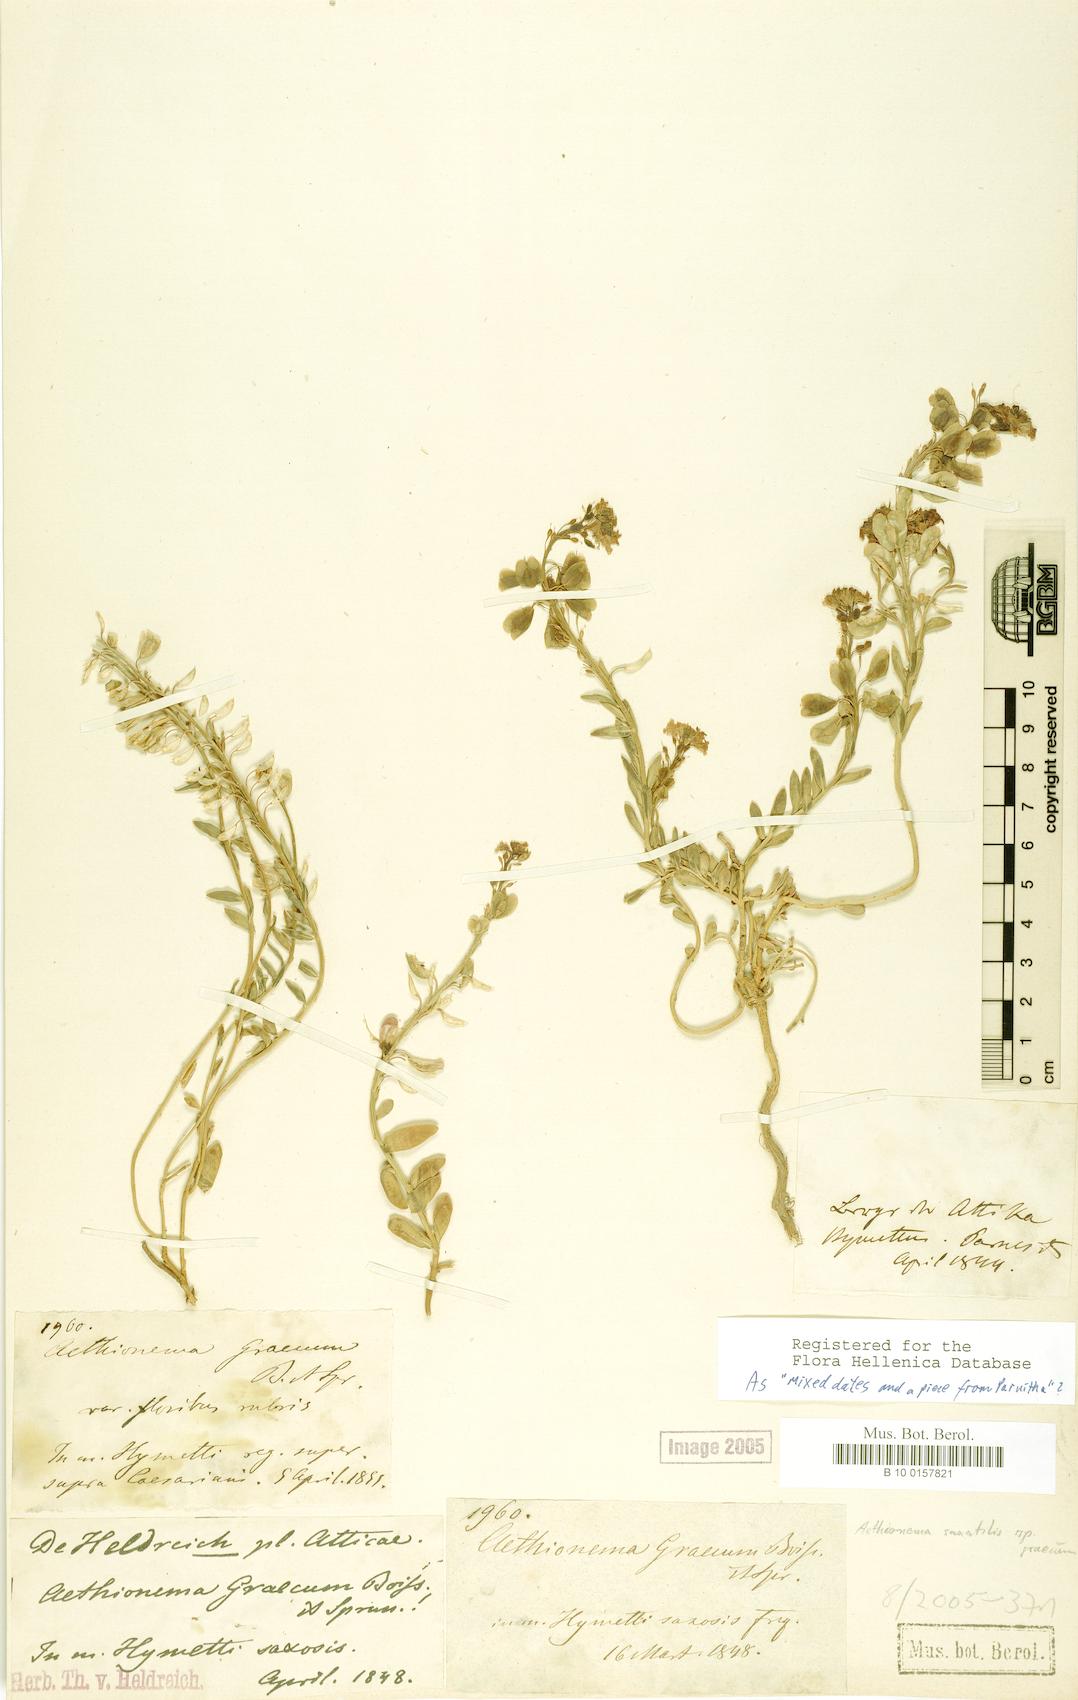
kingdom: Plantae
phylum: Tracheophyta
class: Magnoliopsida
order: Brassicales
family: Brassicaceae
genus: Aethionema
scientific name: Aethionema saxatile
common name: Burnt candytuft
